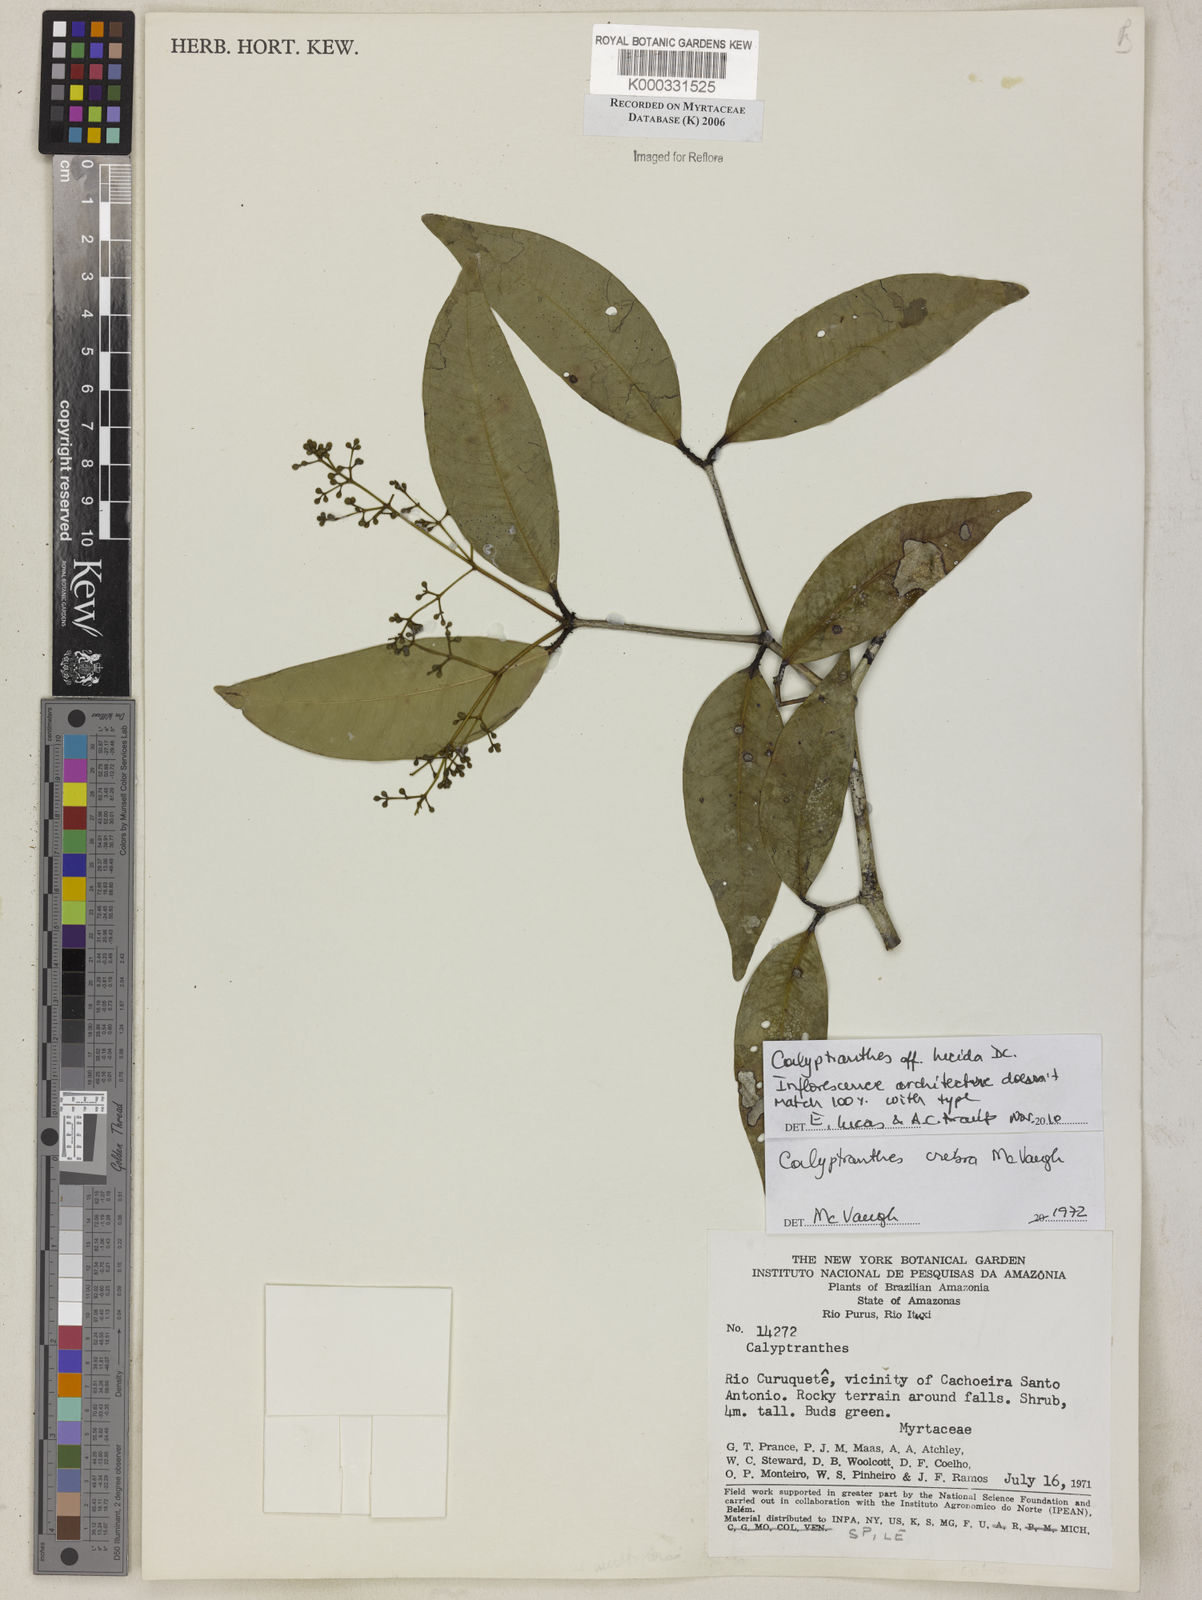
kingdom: Plantae
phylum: Tracheophyta
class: Magnoliopsida
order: Myrtales
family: Myrtaceae
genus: Calyptranthes
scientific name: Calyptranthes
